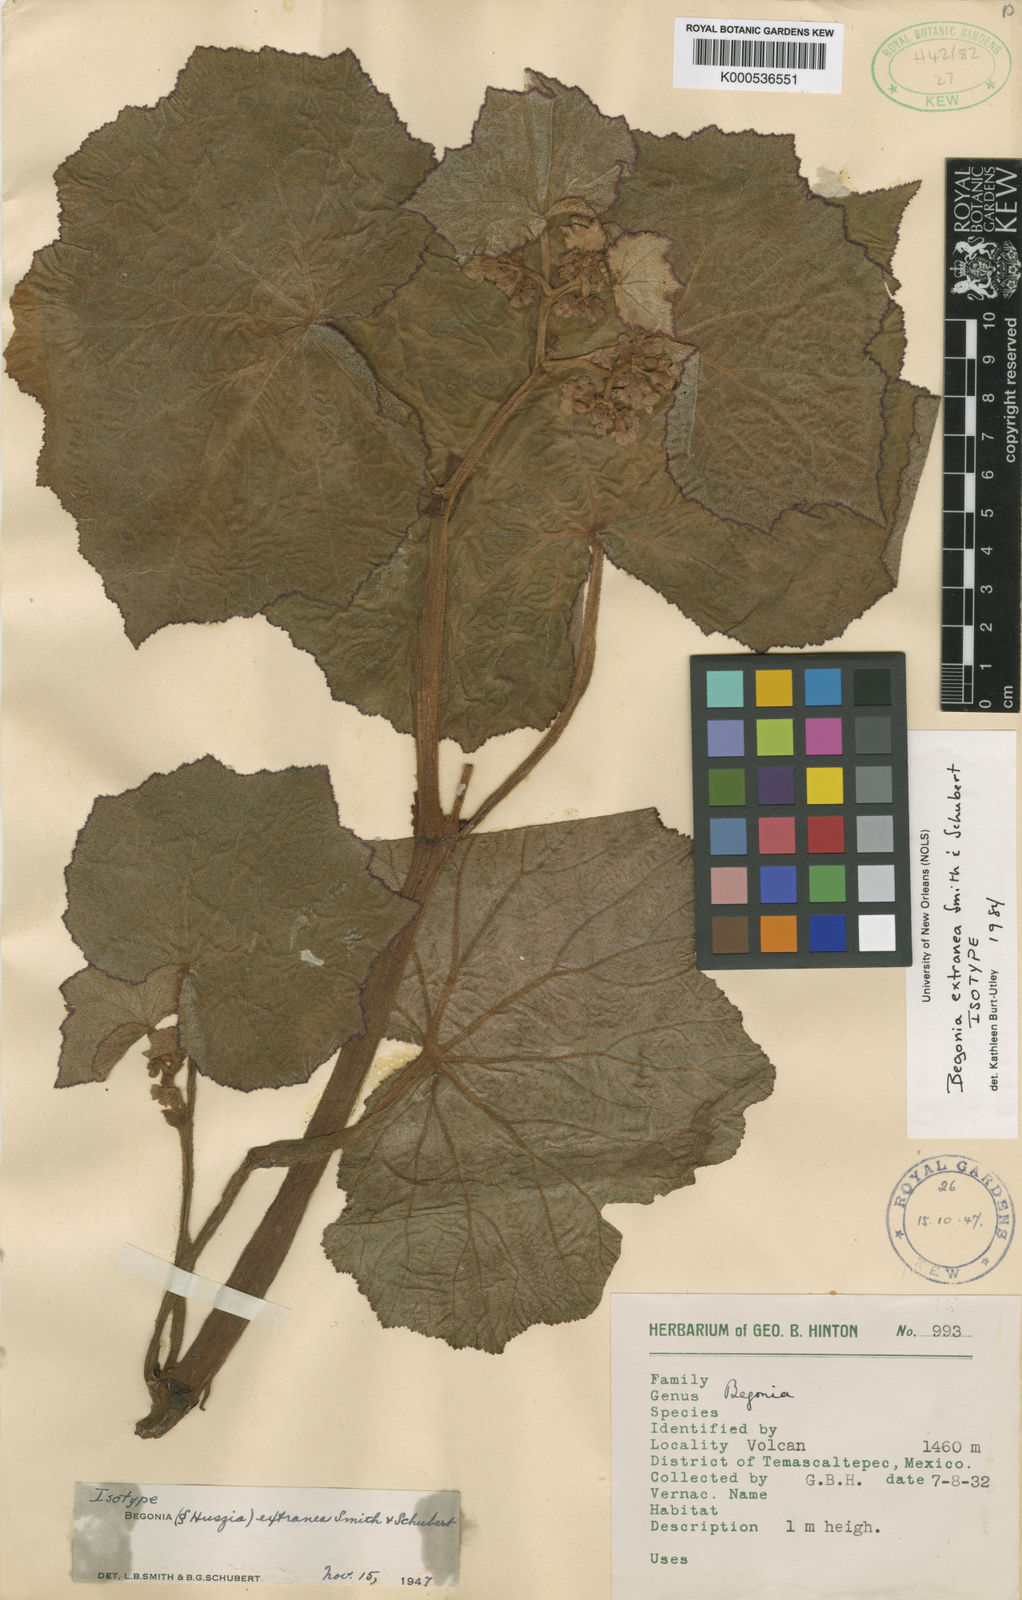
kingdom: Plantae
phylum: Tracheophyta
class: Magnoliopsida
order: Cucurbitales
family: Begoniaceae
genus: Begonia
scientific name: Begonia extranea
